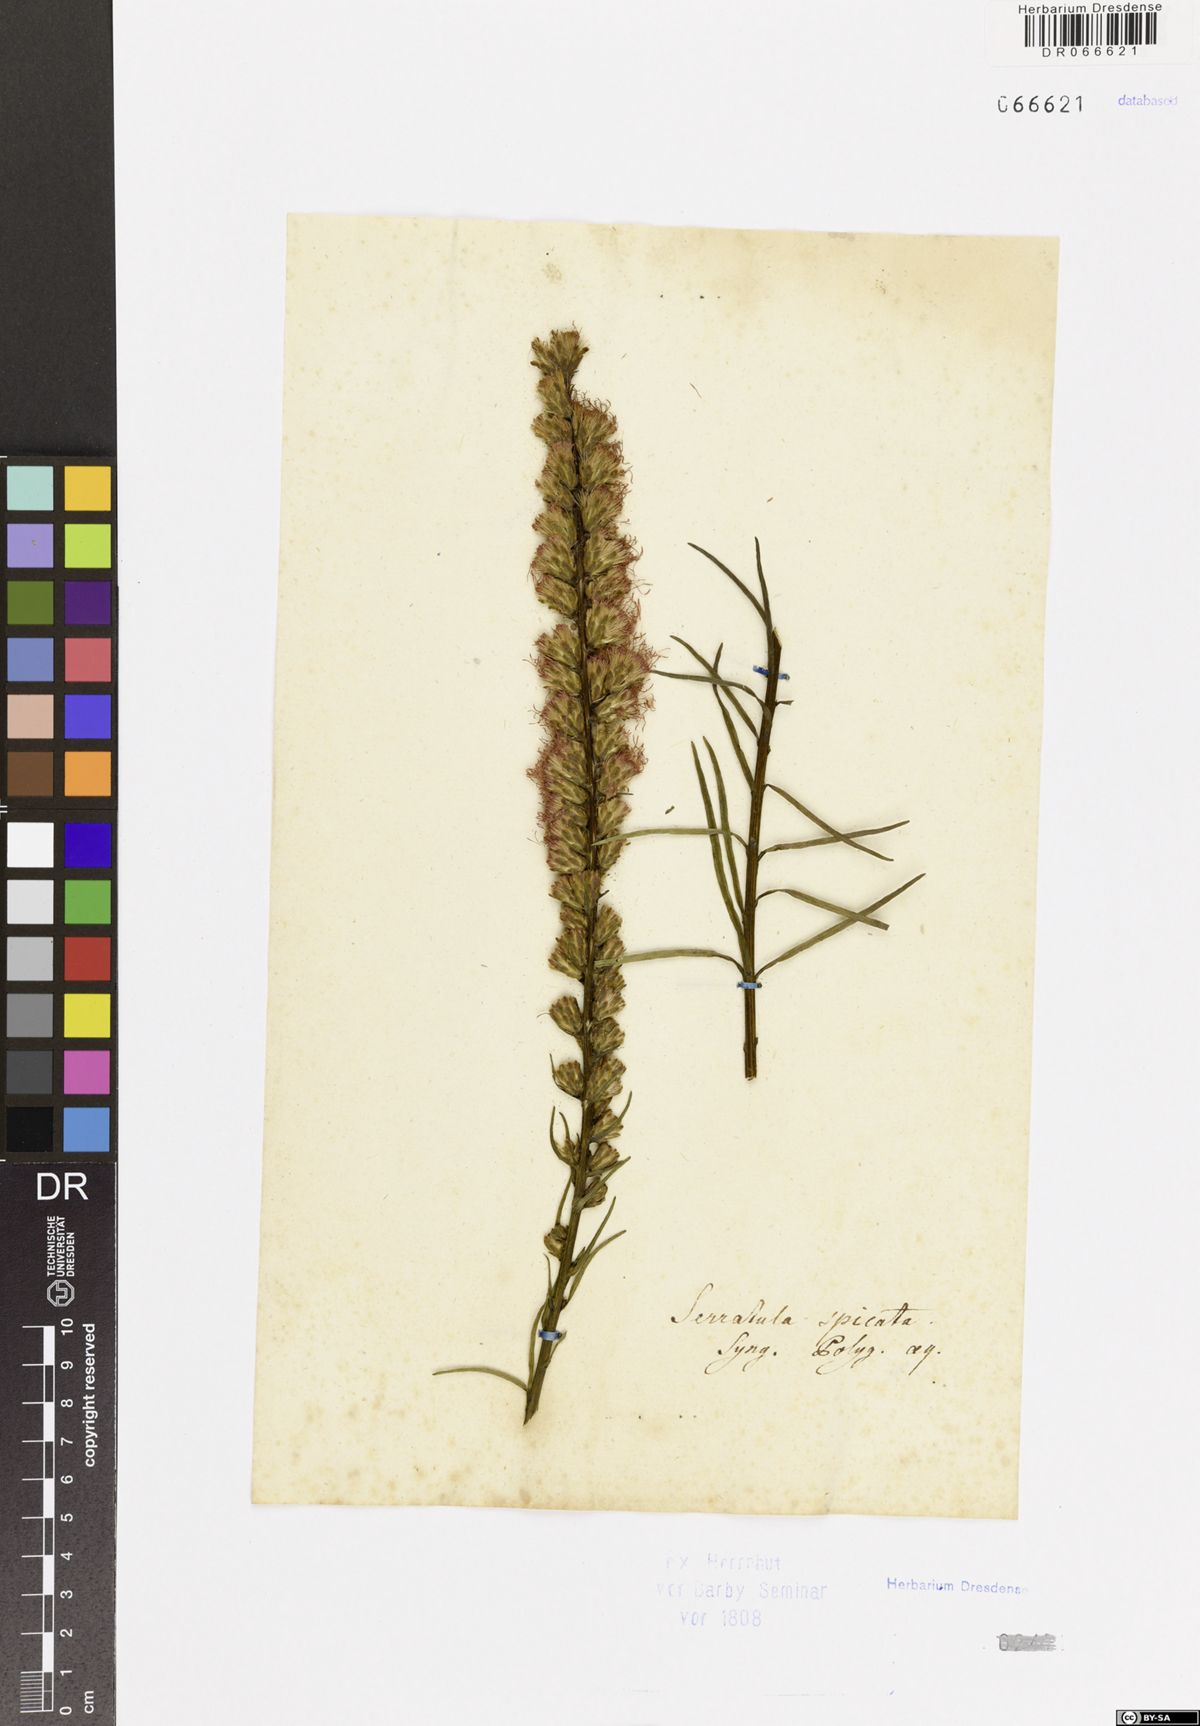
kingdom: Plantae
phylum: Tracheophyta
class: Magnoliopsida
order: Asterales
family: Asteraceae
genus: Liatris
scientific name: Liatris spicata
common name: Florist gayfeather
